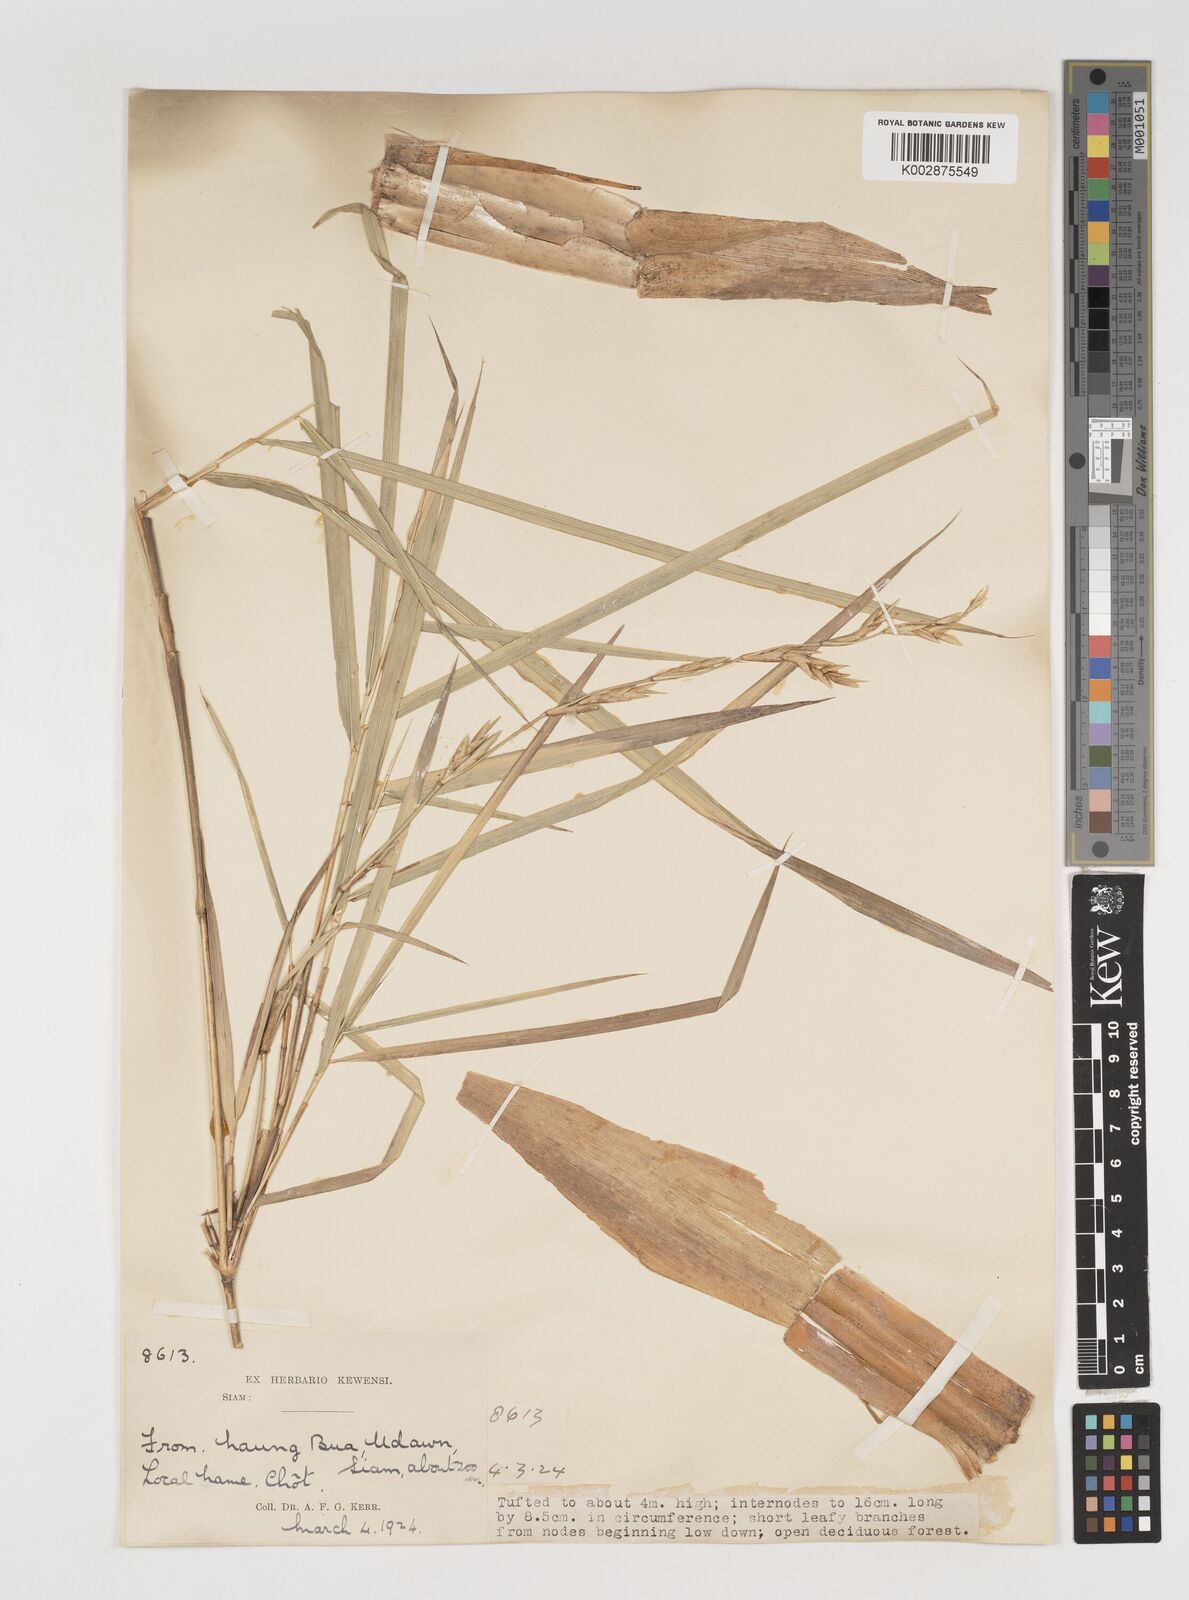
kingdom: Plantae
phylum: Tracheophyta
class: Liliopsida
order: Poales
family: Poaceae
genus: Vietnamosasa
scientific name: Vietnamosasa pusilla
